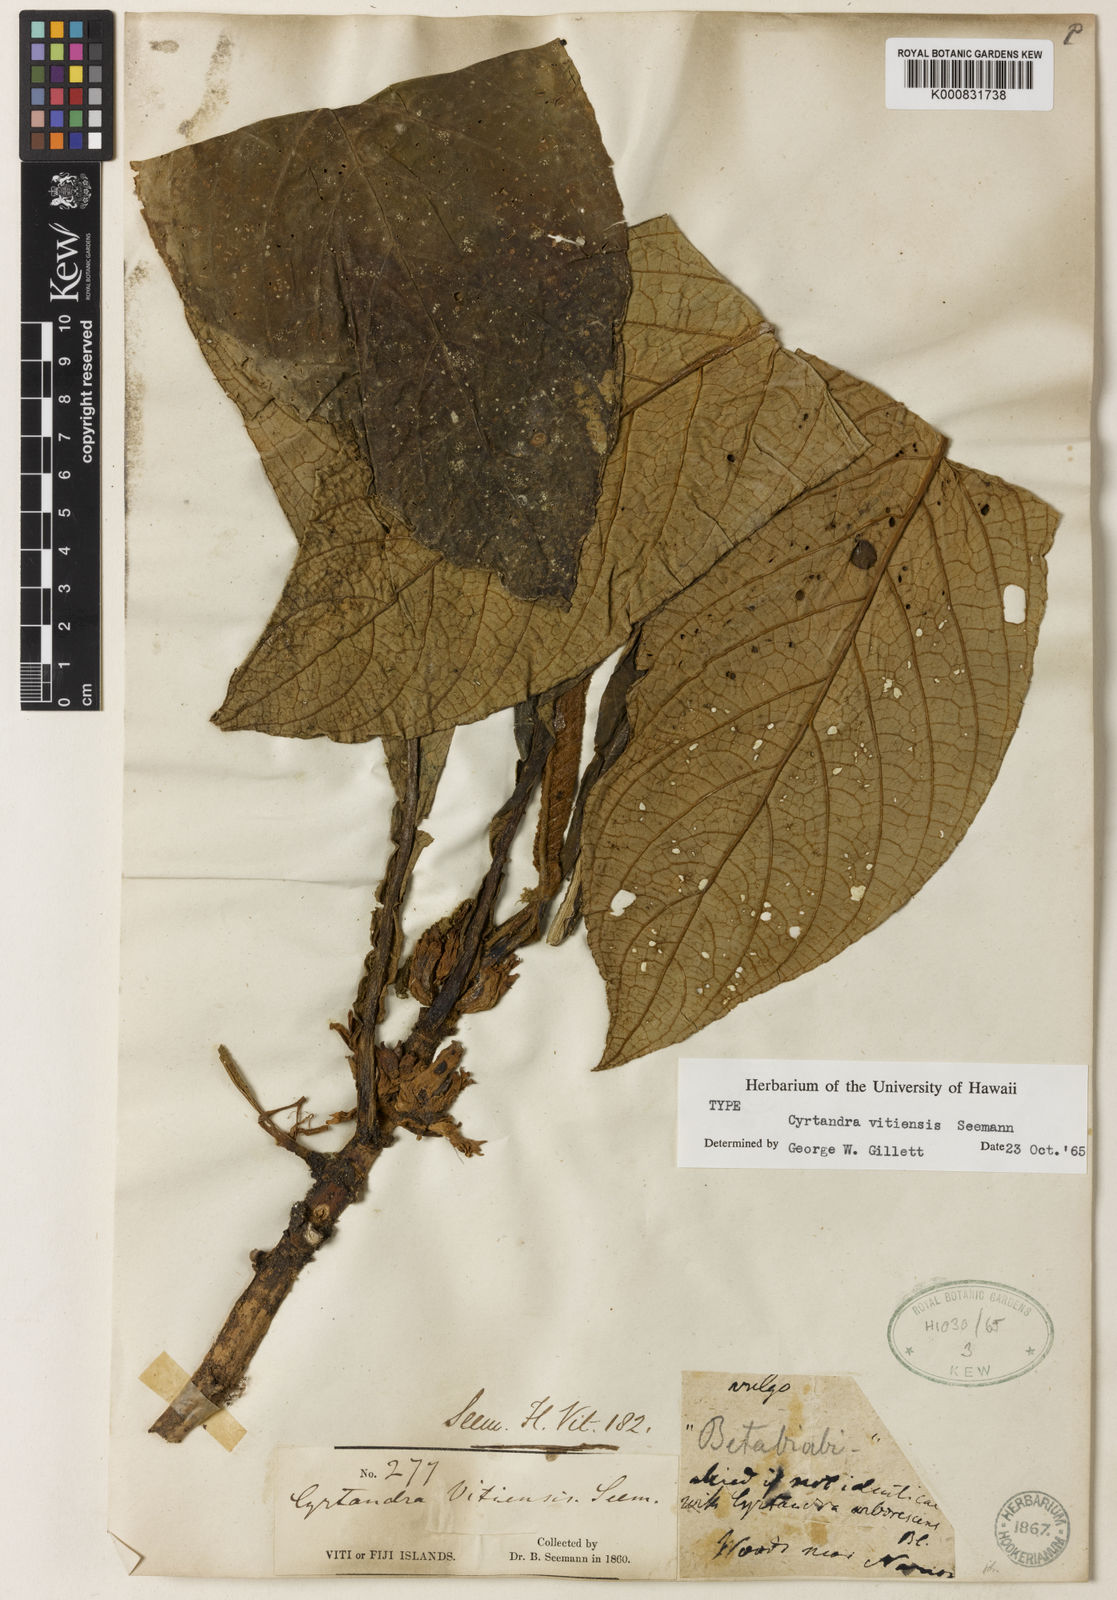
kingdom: Plantae
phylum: Tracheophyta
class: Magnoliopsida
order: Lamiales
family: Gesneriaceae
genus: Cyrtandra
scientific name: Cyrtandra vitiensis
